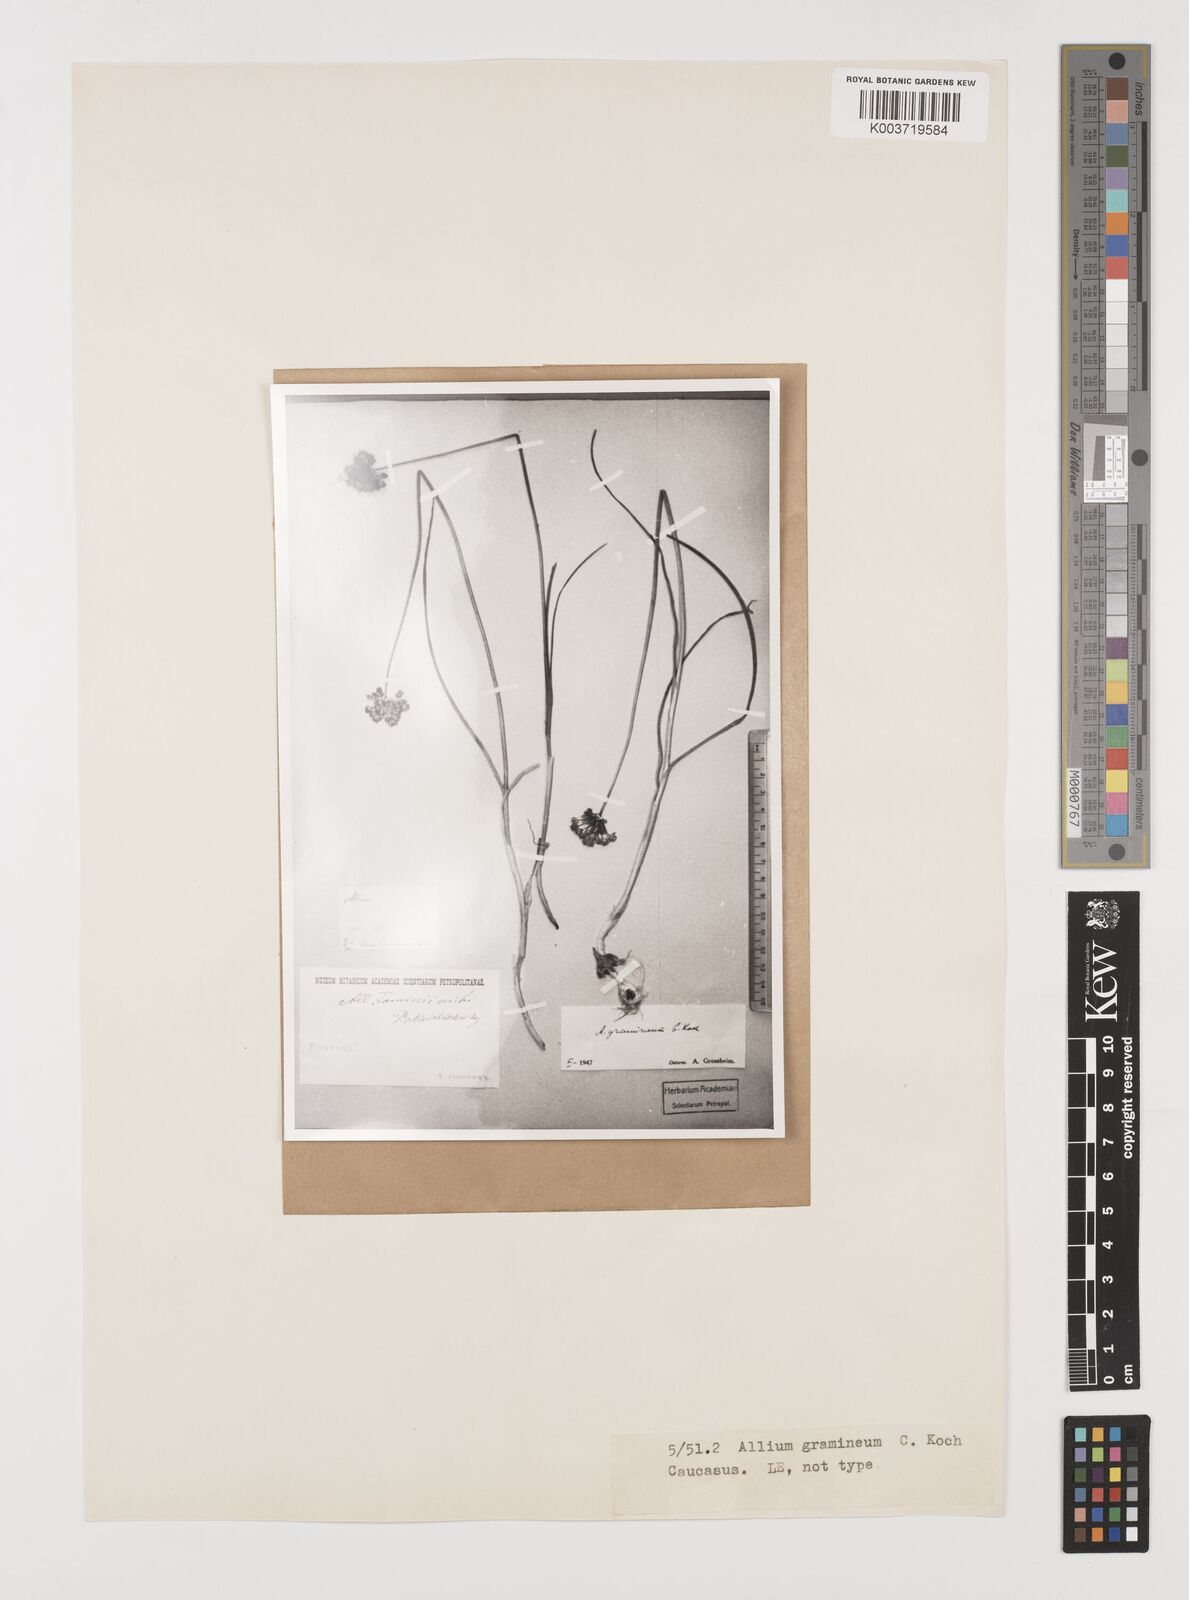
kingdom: Plantae
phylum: Tracheophyta
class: Liliopsida
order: Asparagales
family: Amaryllidaceae
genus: Allium
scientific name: Allium gramineum
